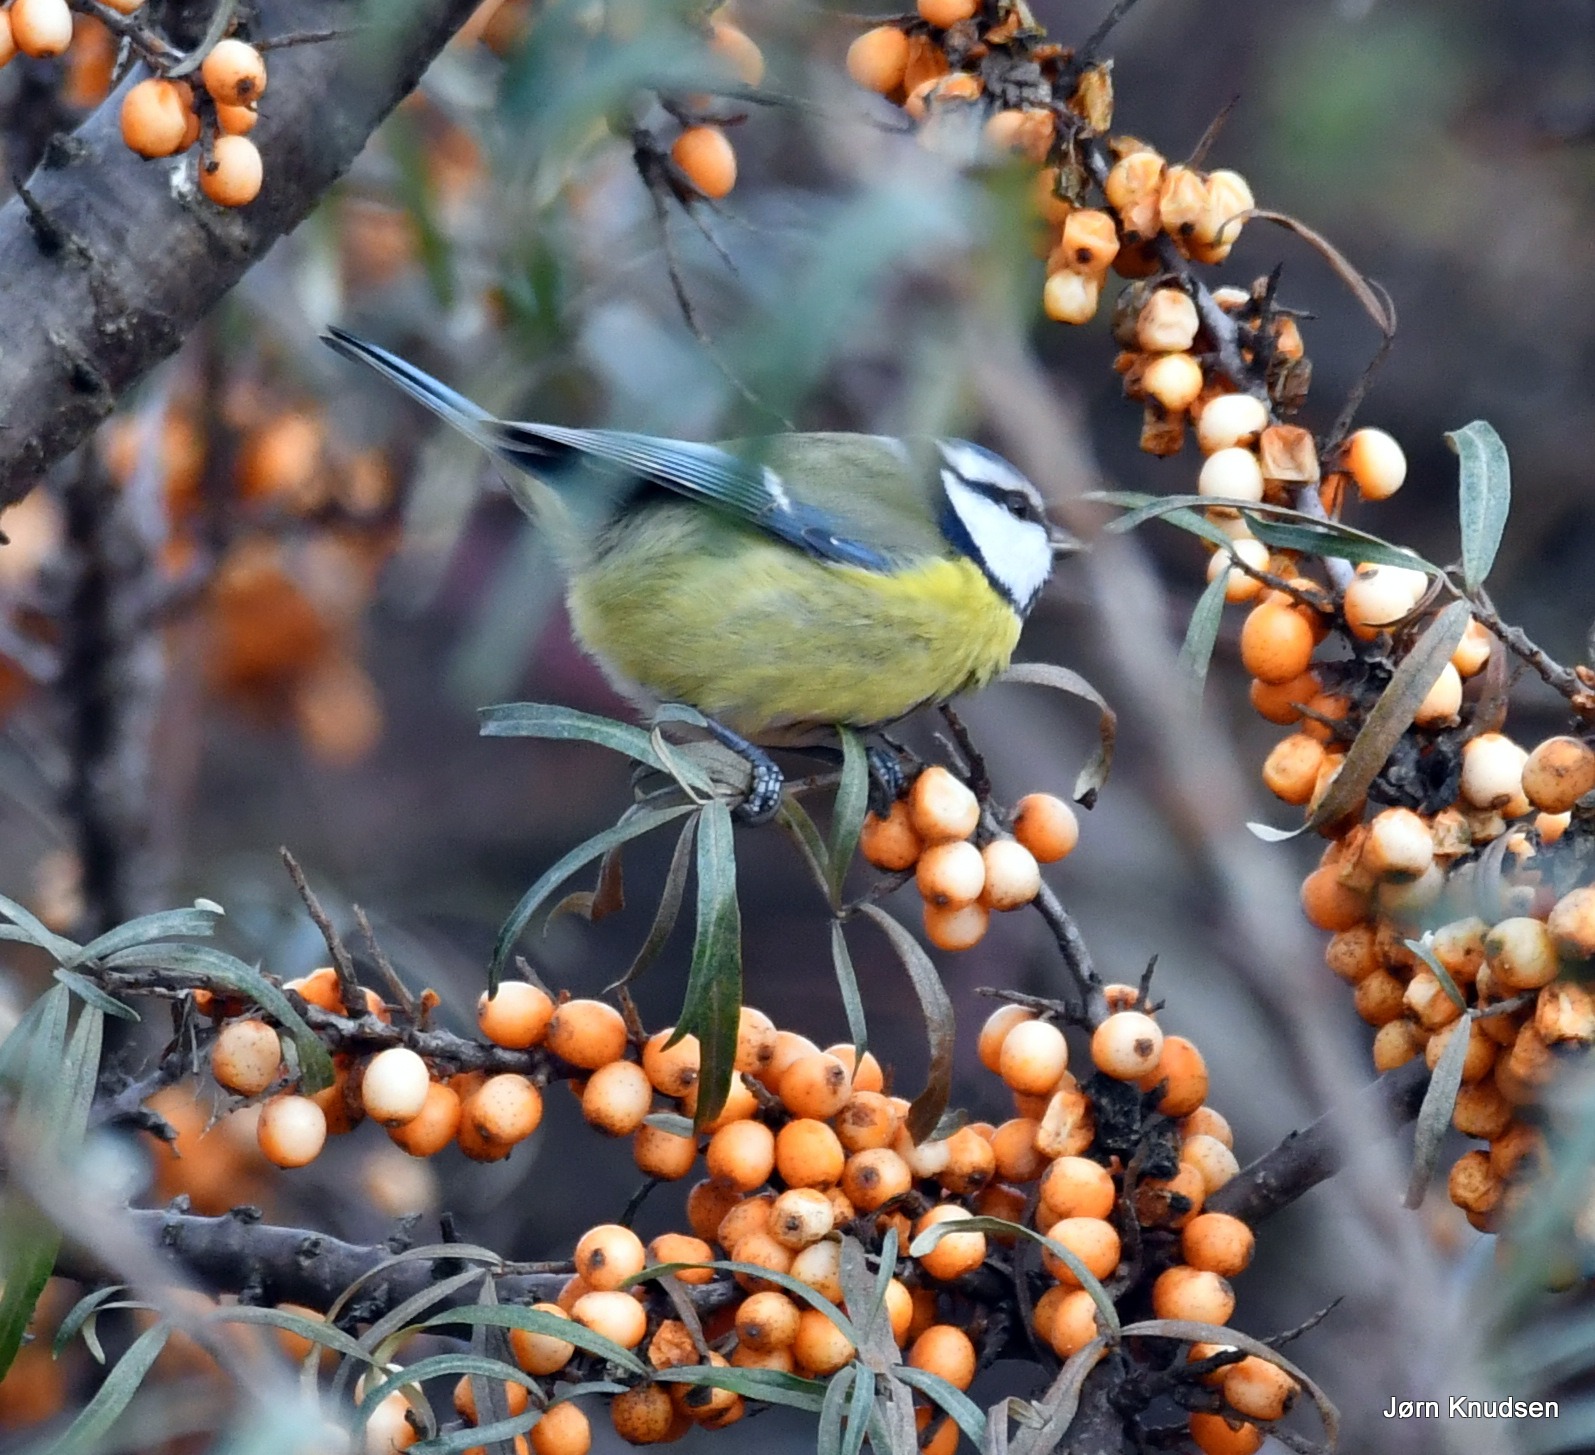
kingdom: Animalia
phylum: Chordata
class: Aves
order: Passeriformes
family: Paridae
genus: Cyanistes
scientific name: Cyanistes caeruleus
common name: Blåmejse
